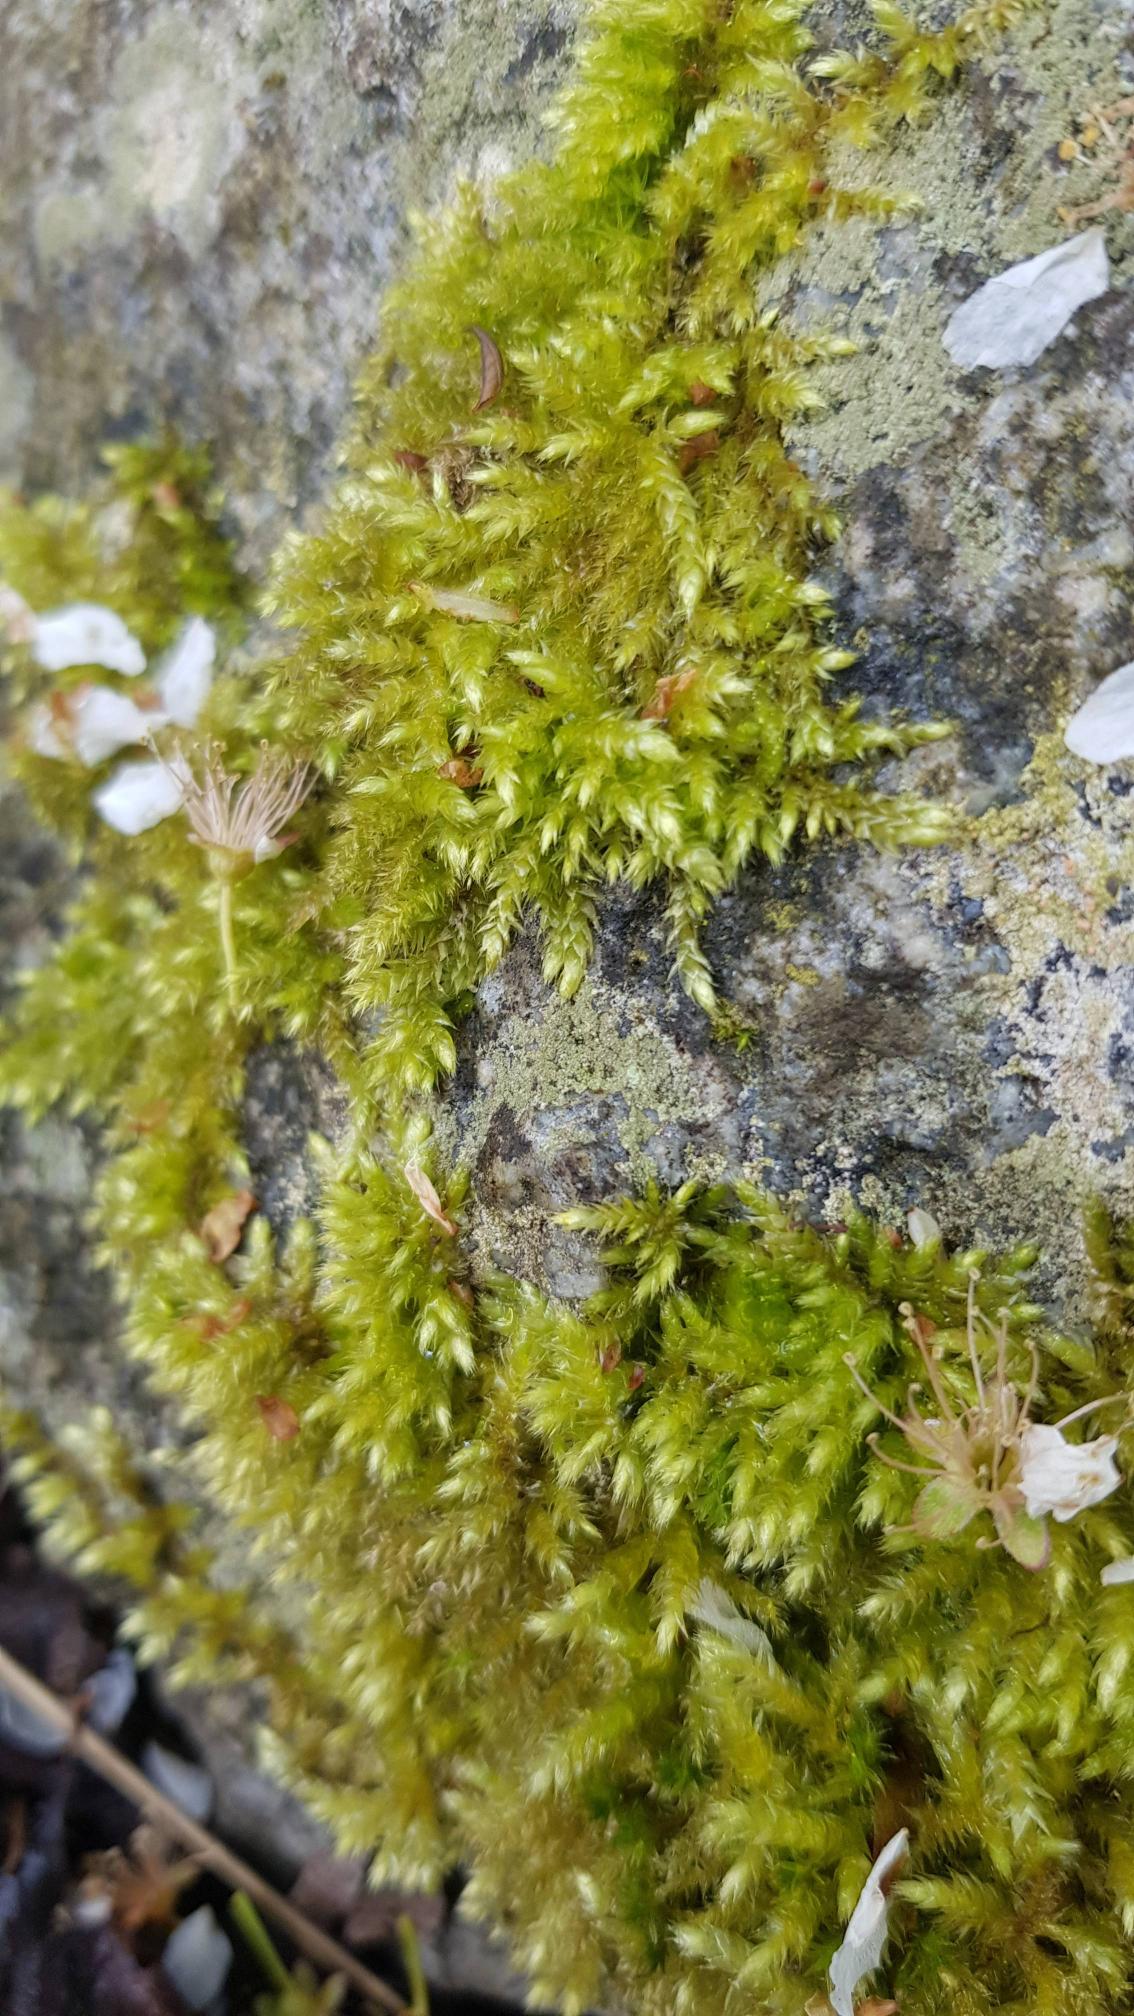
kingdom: Plantae
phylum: Bryophyta
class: Bryopsida
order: Hypnales
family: Brachytheciaceae
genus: Brachythecium
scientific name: Brachythecium rutabulum
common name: Almindelig kortkapsel
